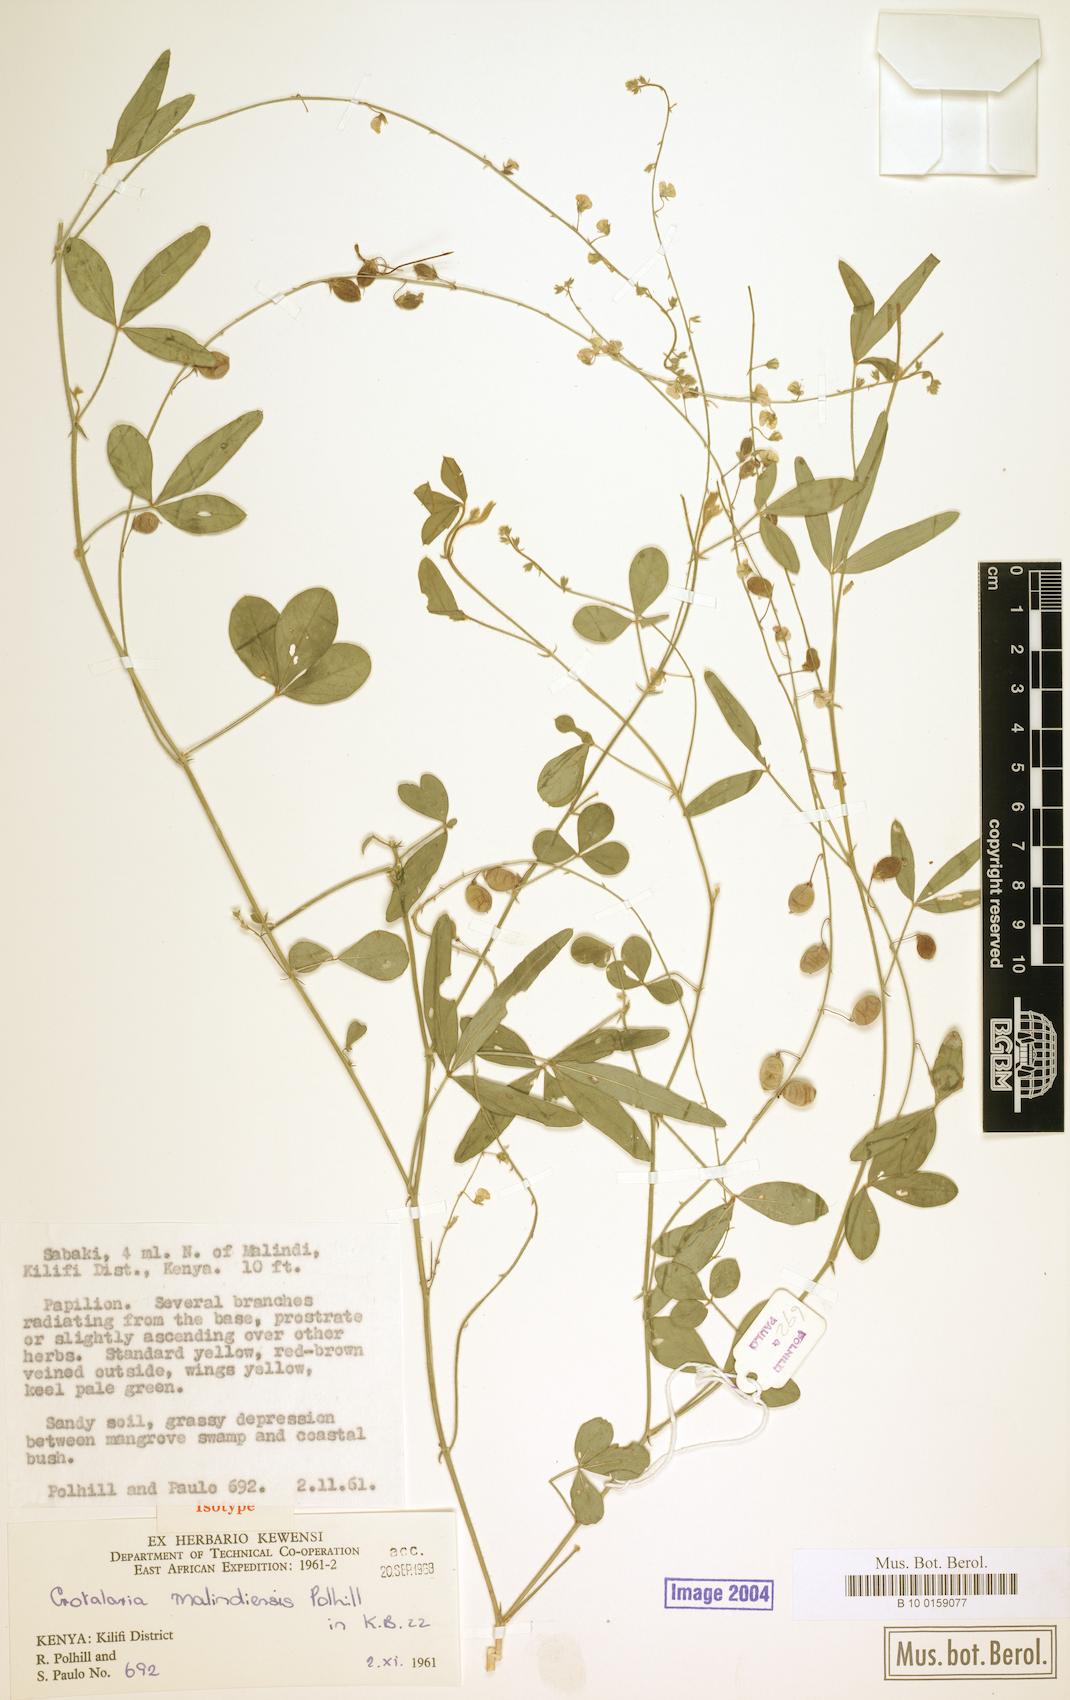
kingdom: Plantae
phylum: Tracheophyta
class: Magnoliopsida
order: Fabales
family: Fabaceae
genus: Crotalaria
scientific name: Crotalaria malindiensis
